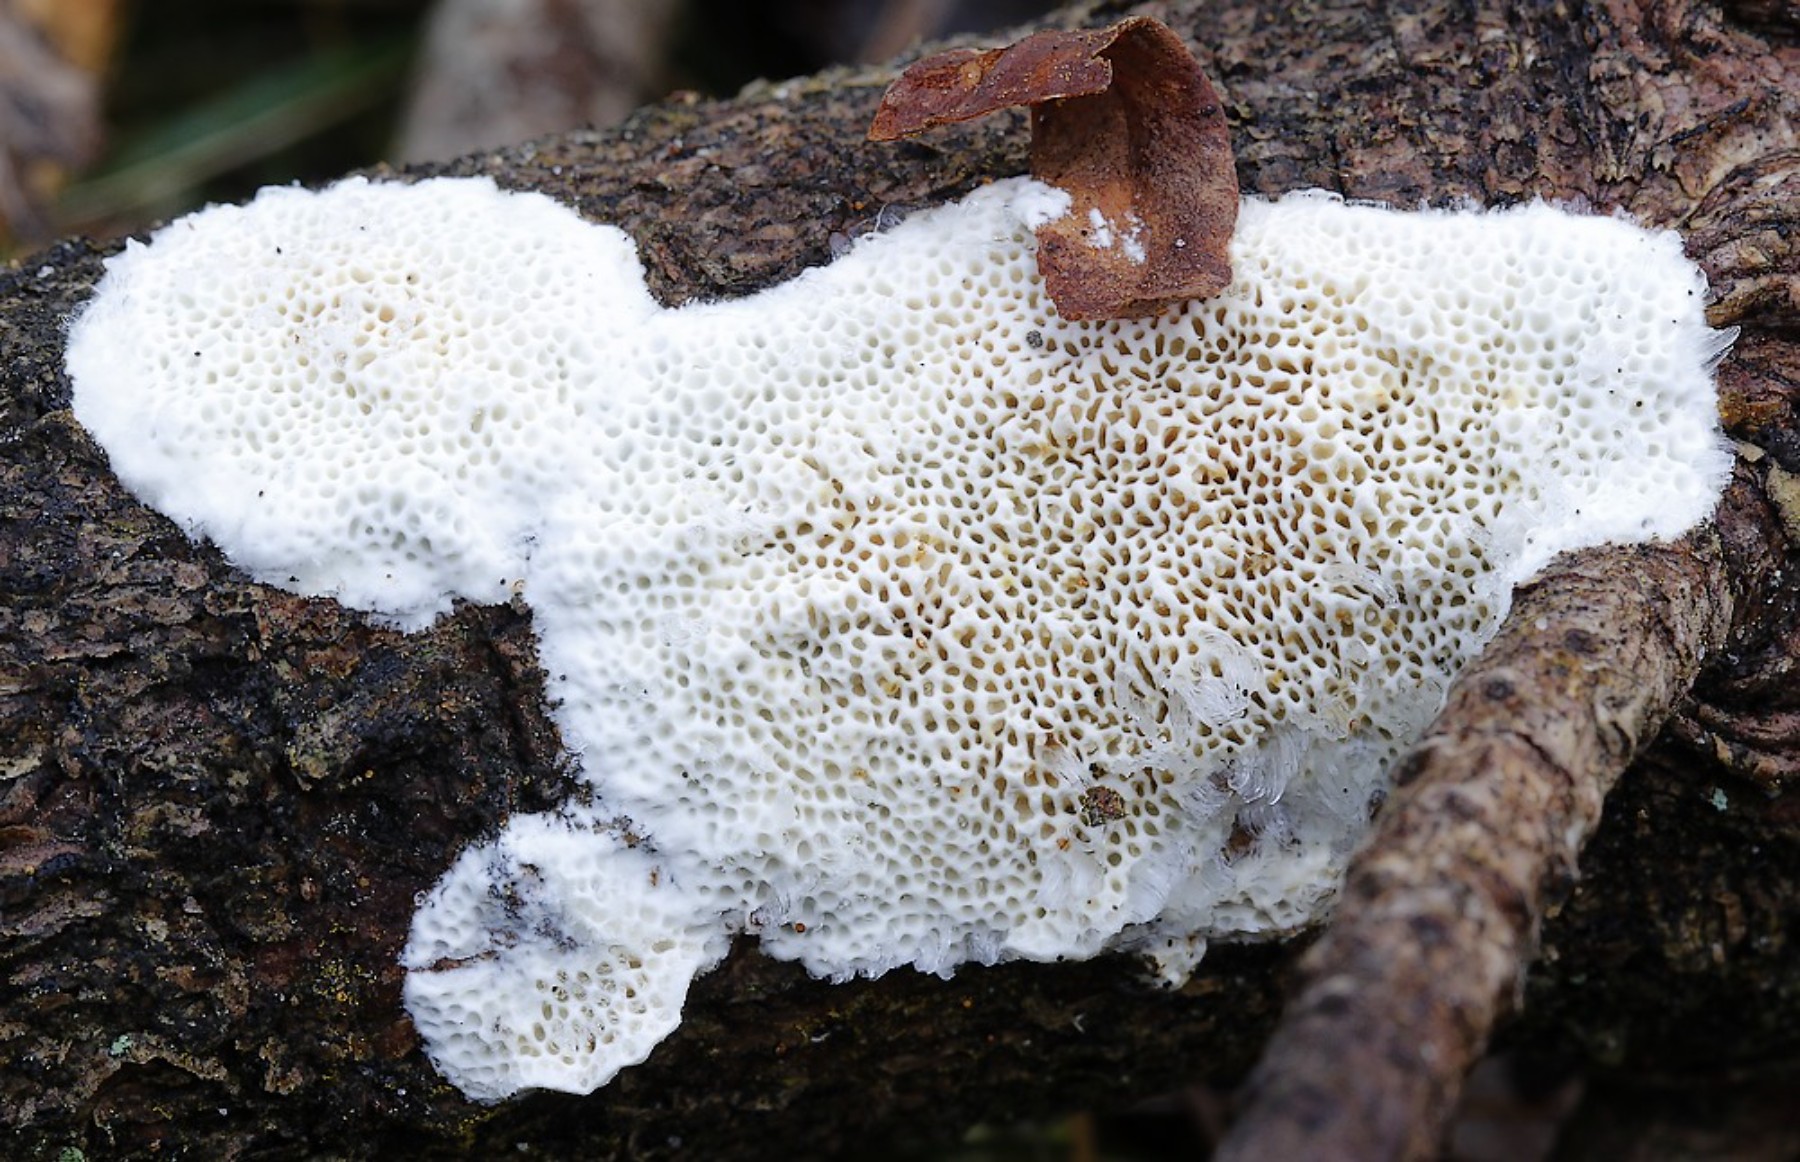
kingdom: Fungi
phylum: Basidiomycota
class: Agaricomycetes
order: Polyporales
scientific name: Polyporales
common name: poresvampordenen
